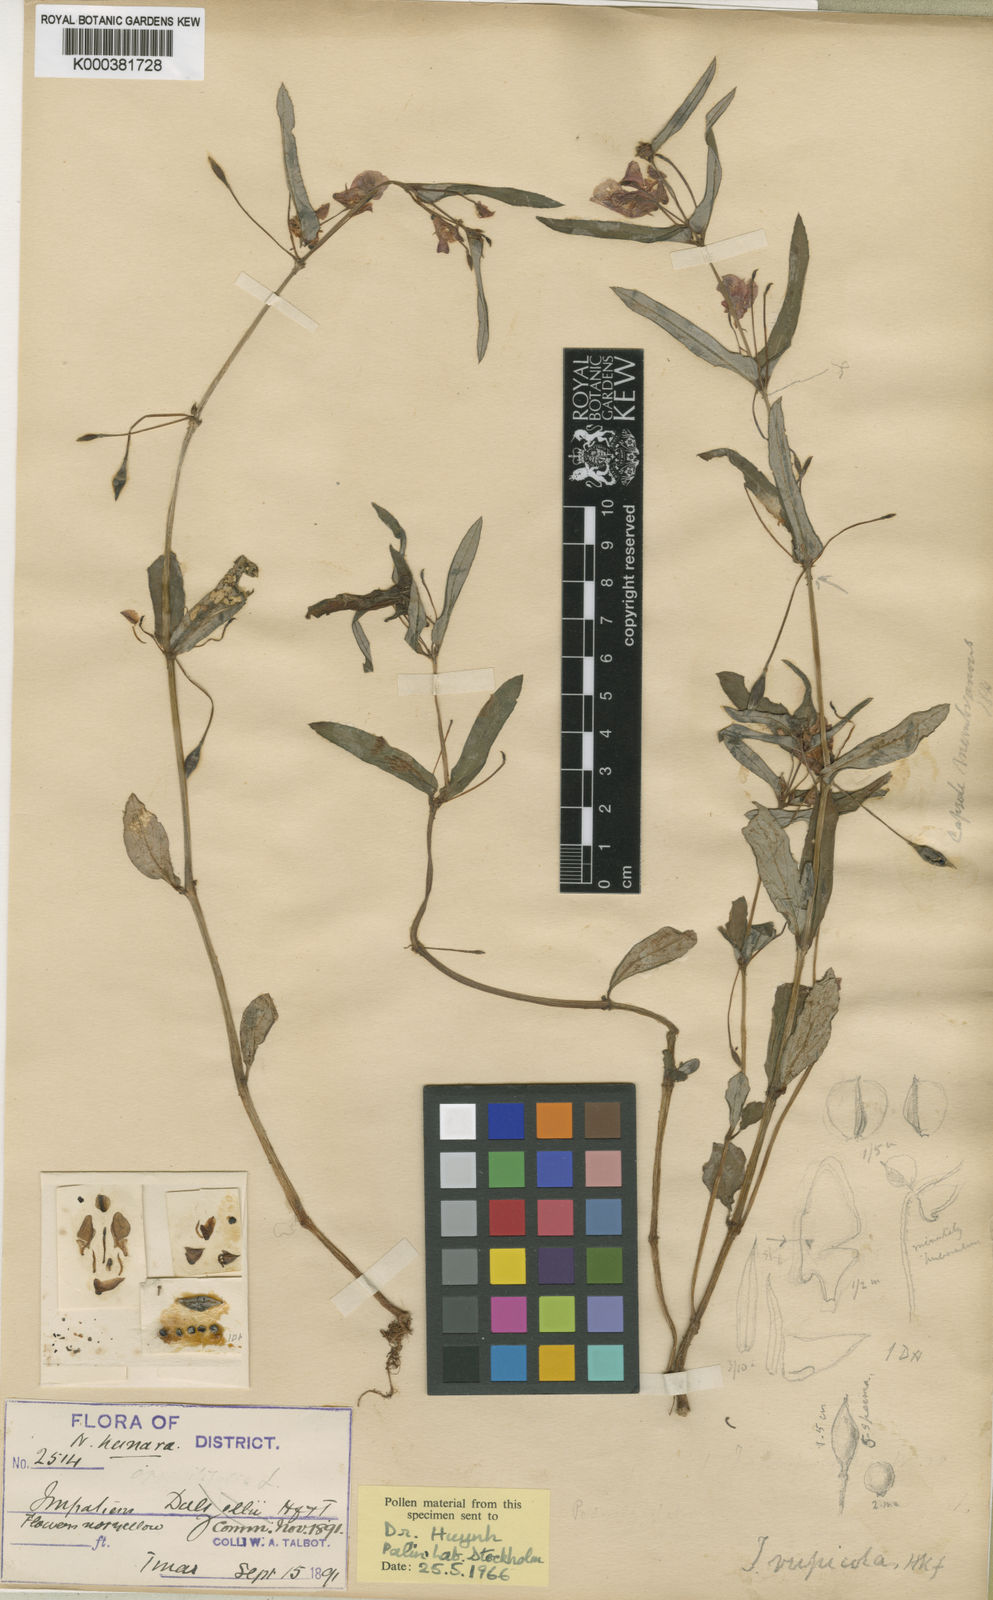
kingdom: Plantae
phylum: Tracheophyta
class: Magnoliopsida
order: Ericales
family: Balsaminaceae
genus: Impatiens
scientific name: Impatiens chinensis
